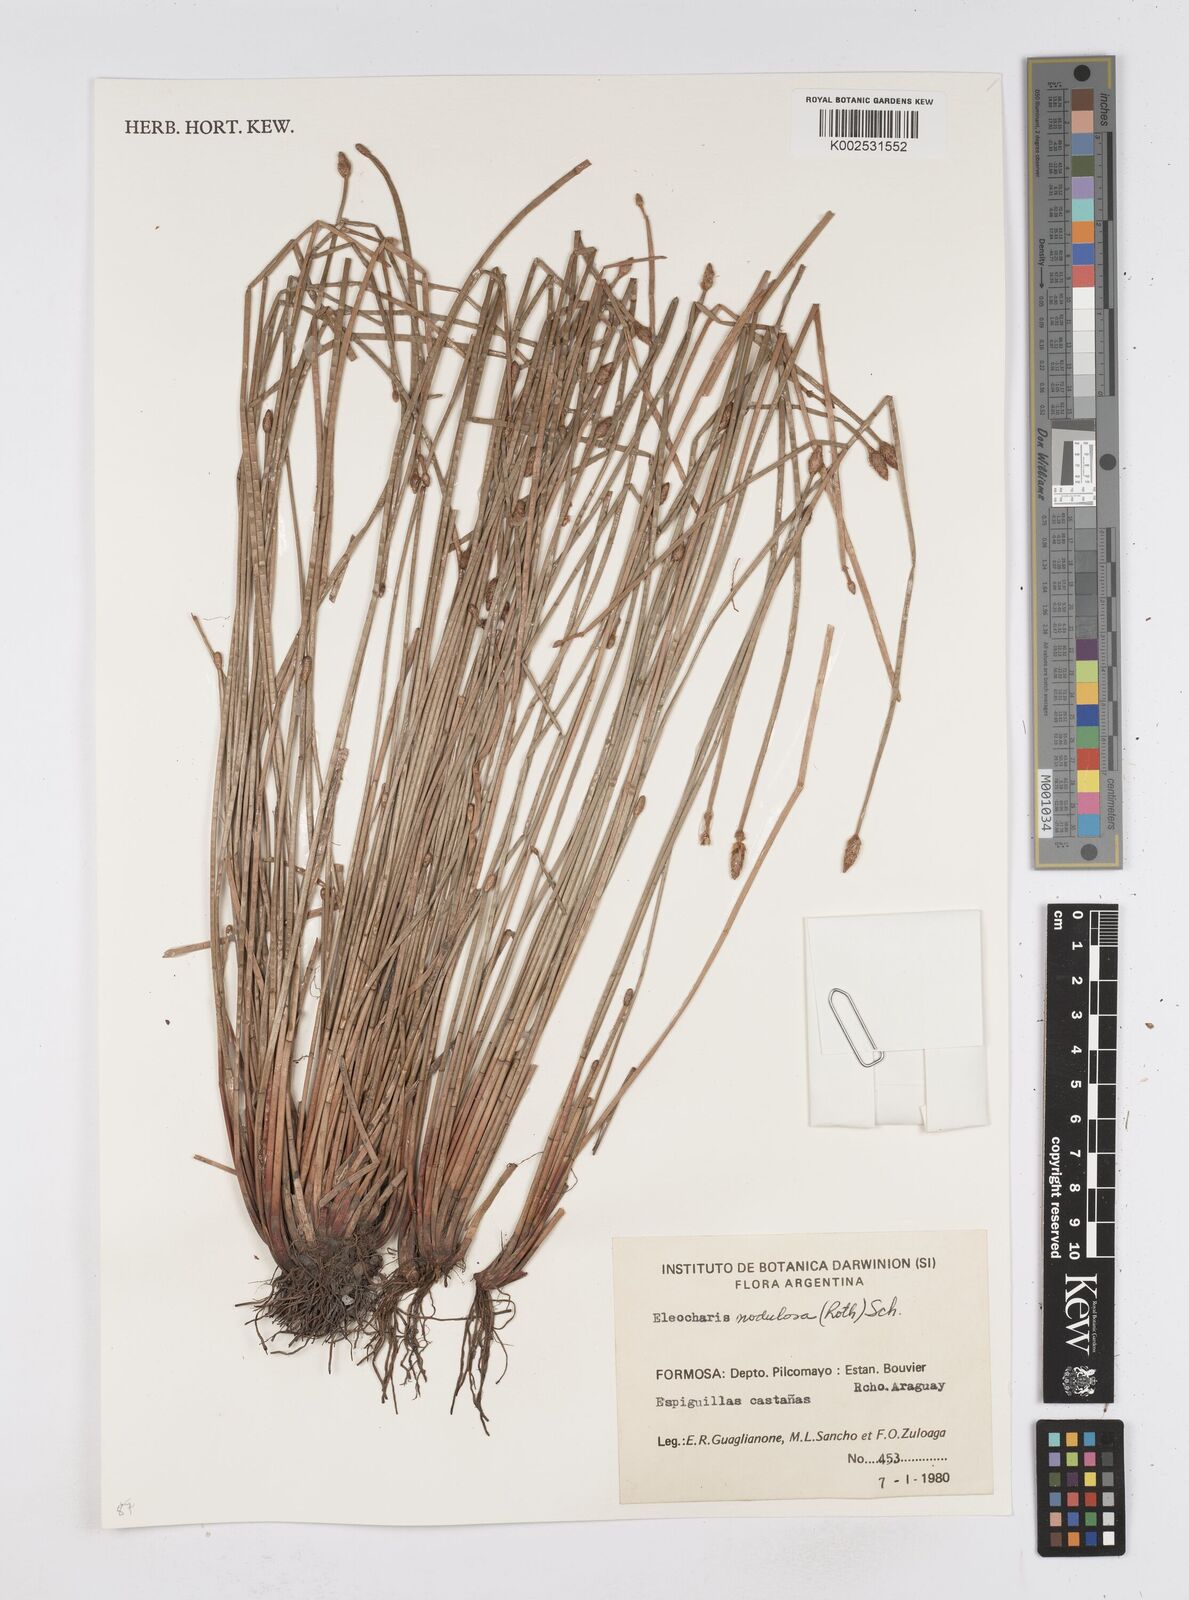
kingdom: Plantae
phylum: Tracheophyta
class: Liliopsida
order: Poales
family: Cyperaceae
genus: Eleocharis
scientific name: Eleocharis montana
